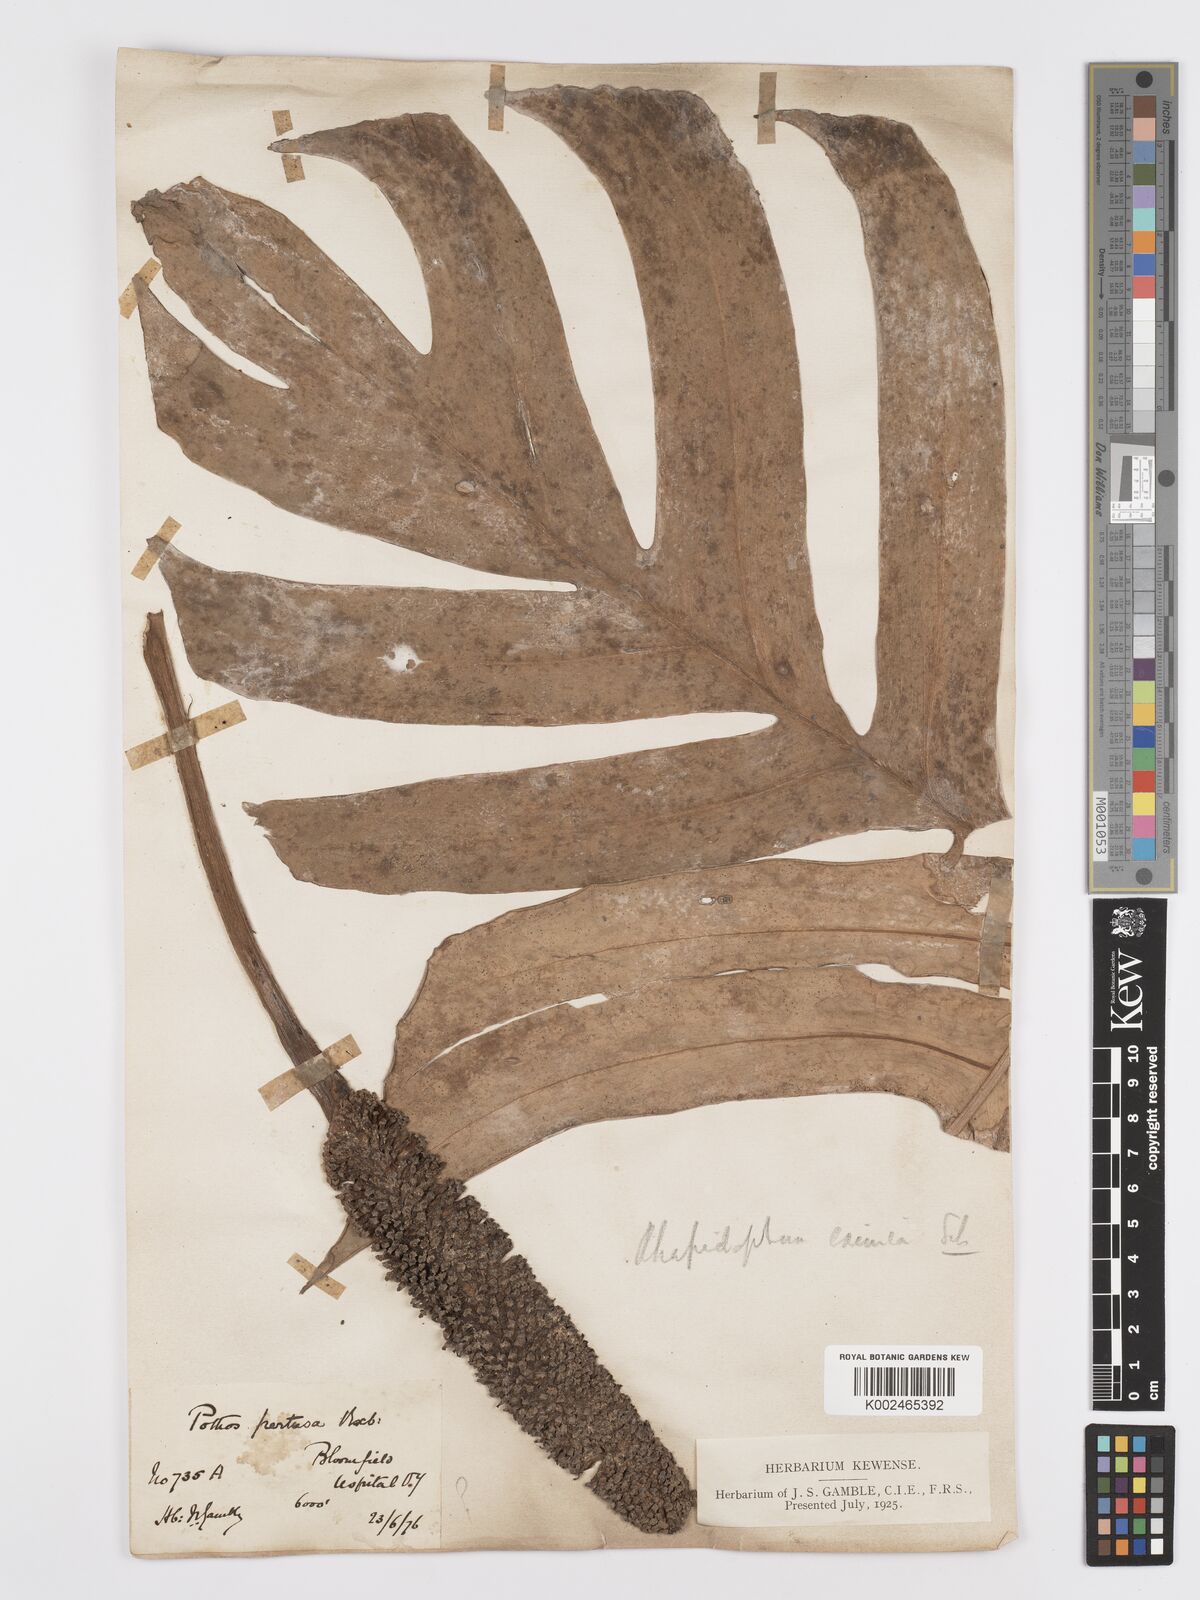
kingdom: Plantae
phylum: Tracheophyta
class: Liliopsida
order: Alismatales
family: Araceae
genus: Rhaphidophora
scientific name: Rhaphidophora decursiva
